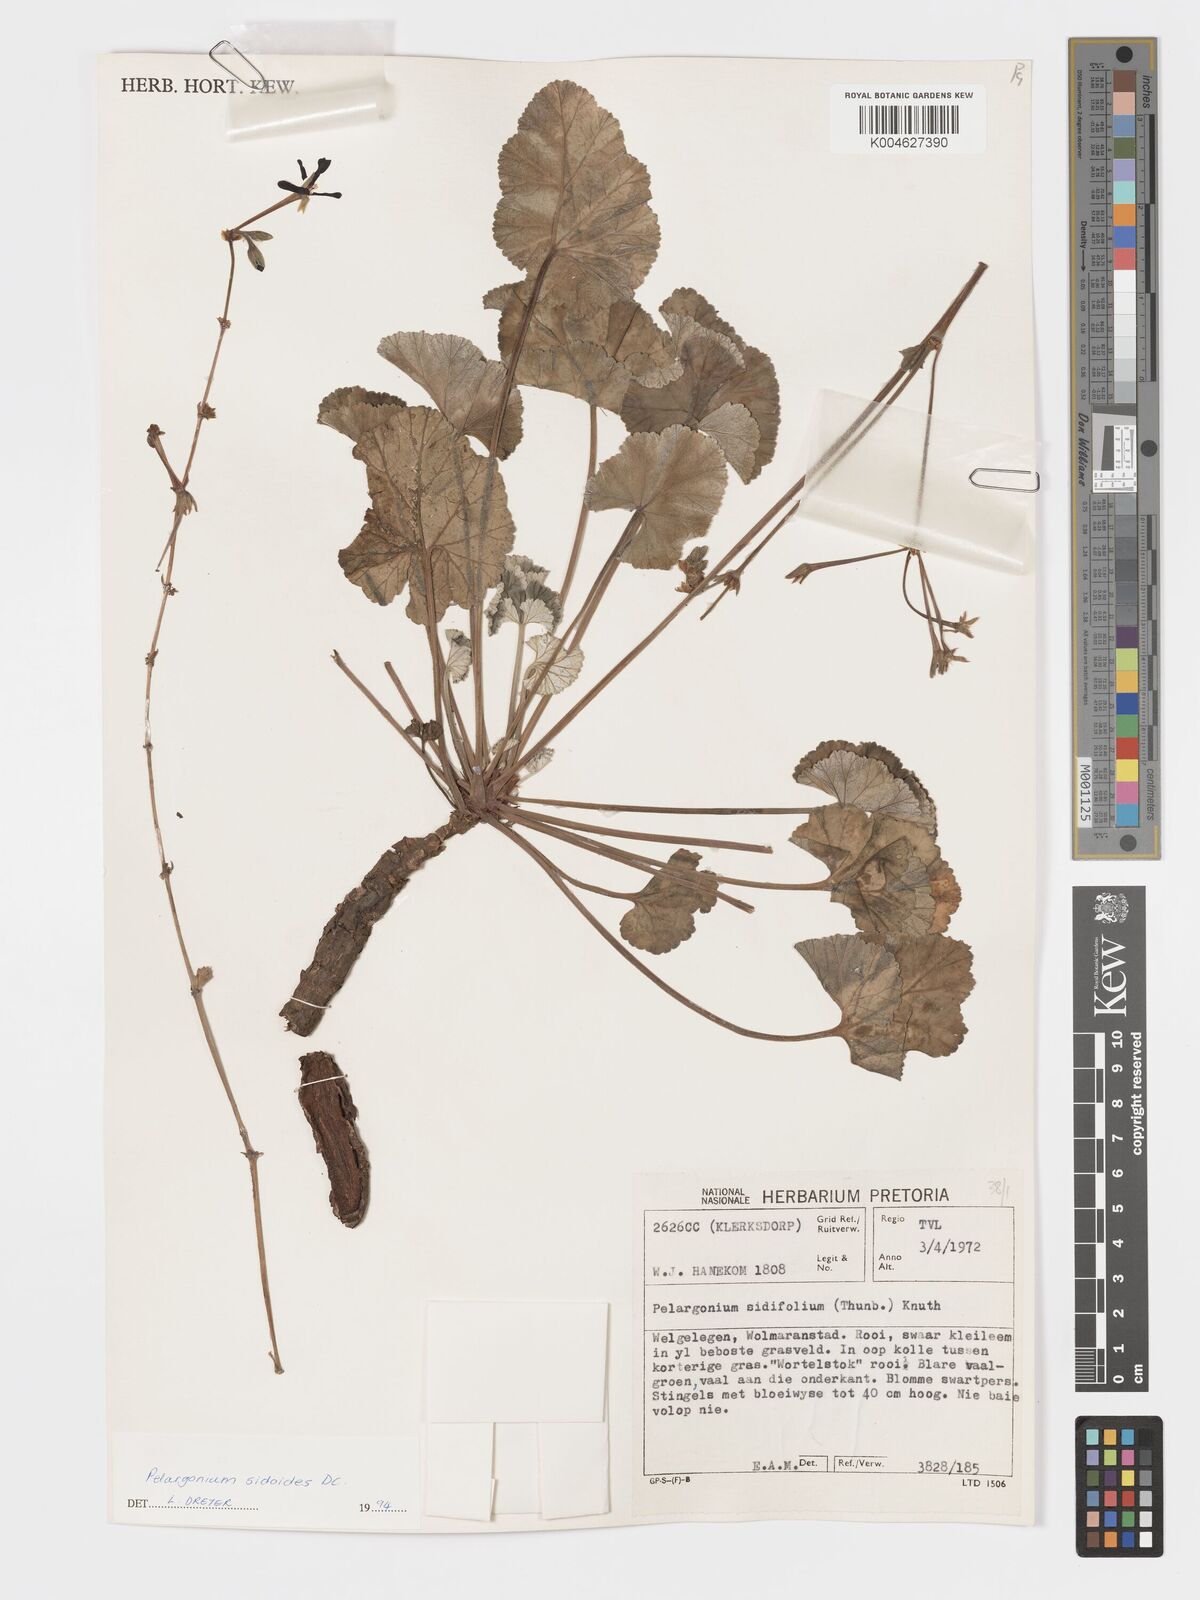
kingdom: Plantae
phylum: Tracheophyta
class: Magnoliopsida
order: Geraniales
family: Geraniaceae
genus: Pelargonium
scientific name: Pelargonium sidoides
